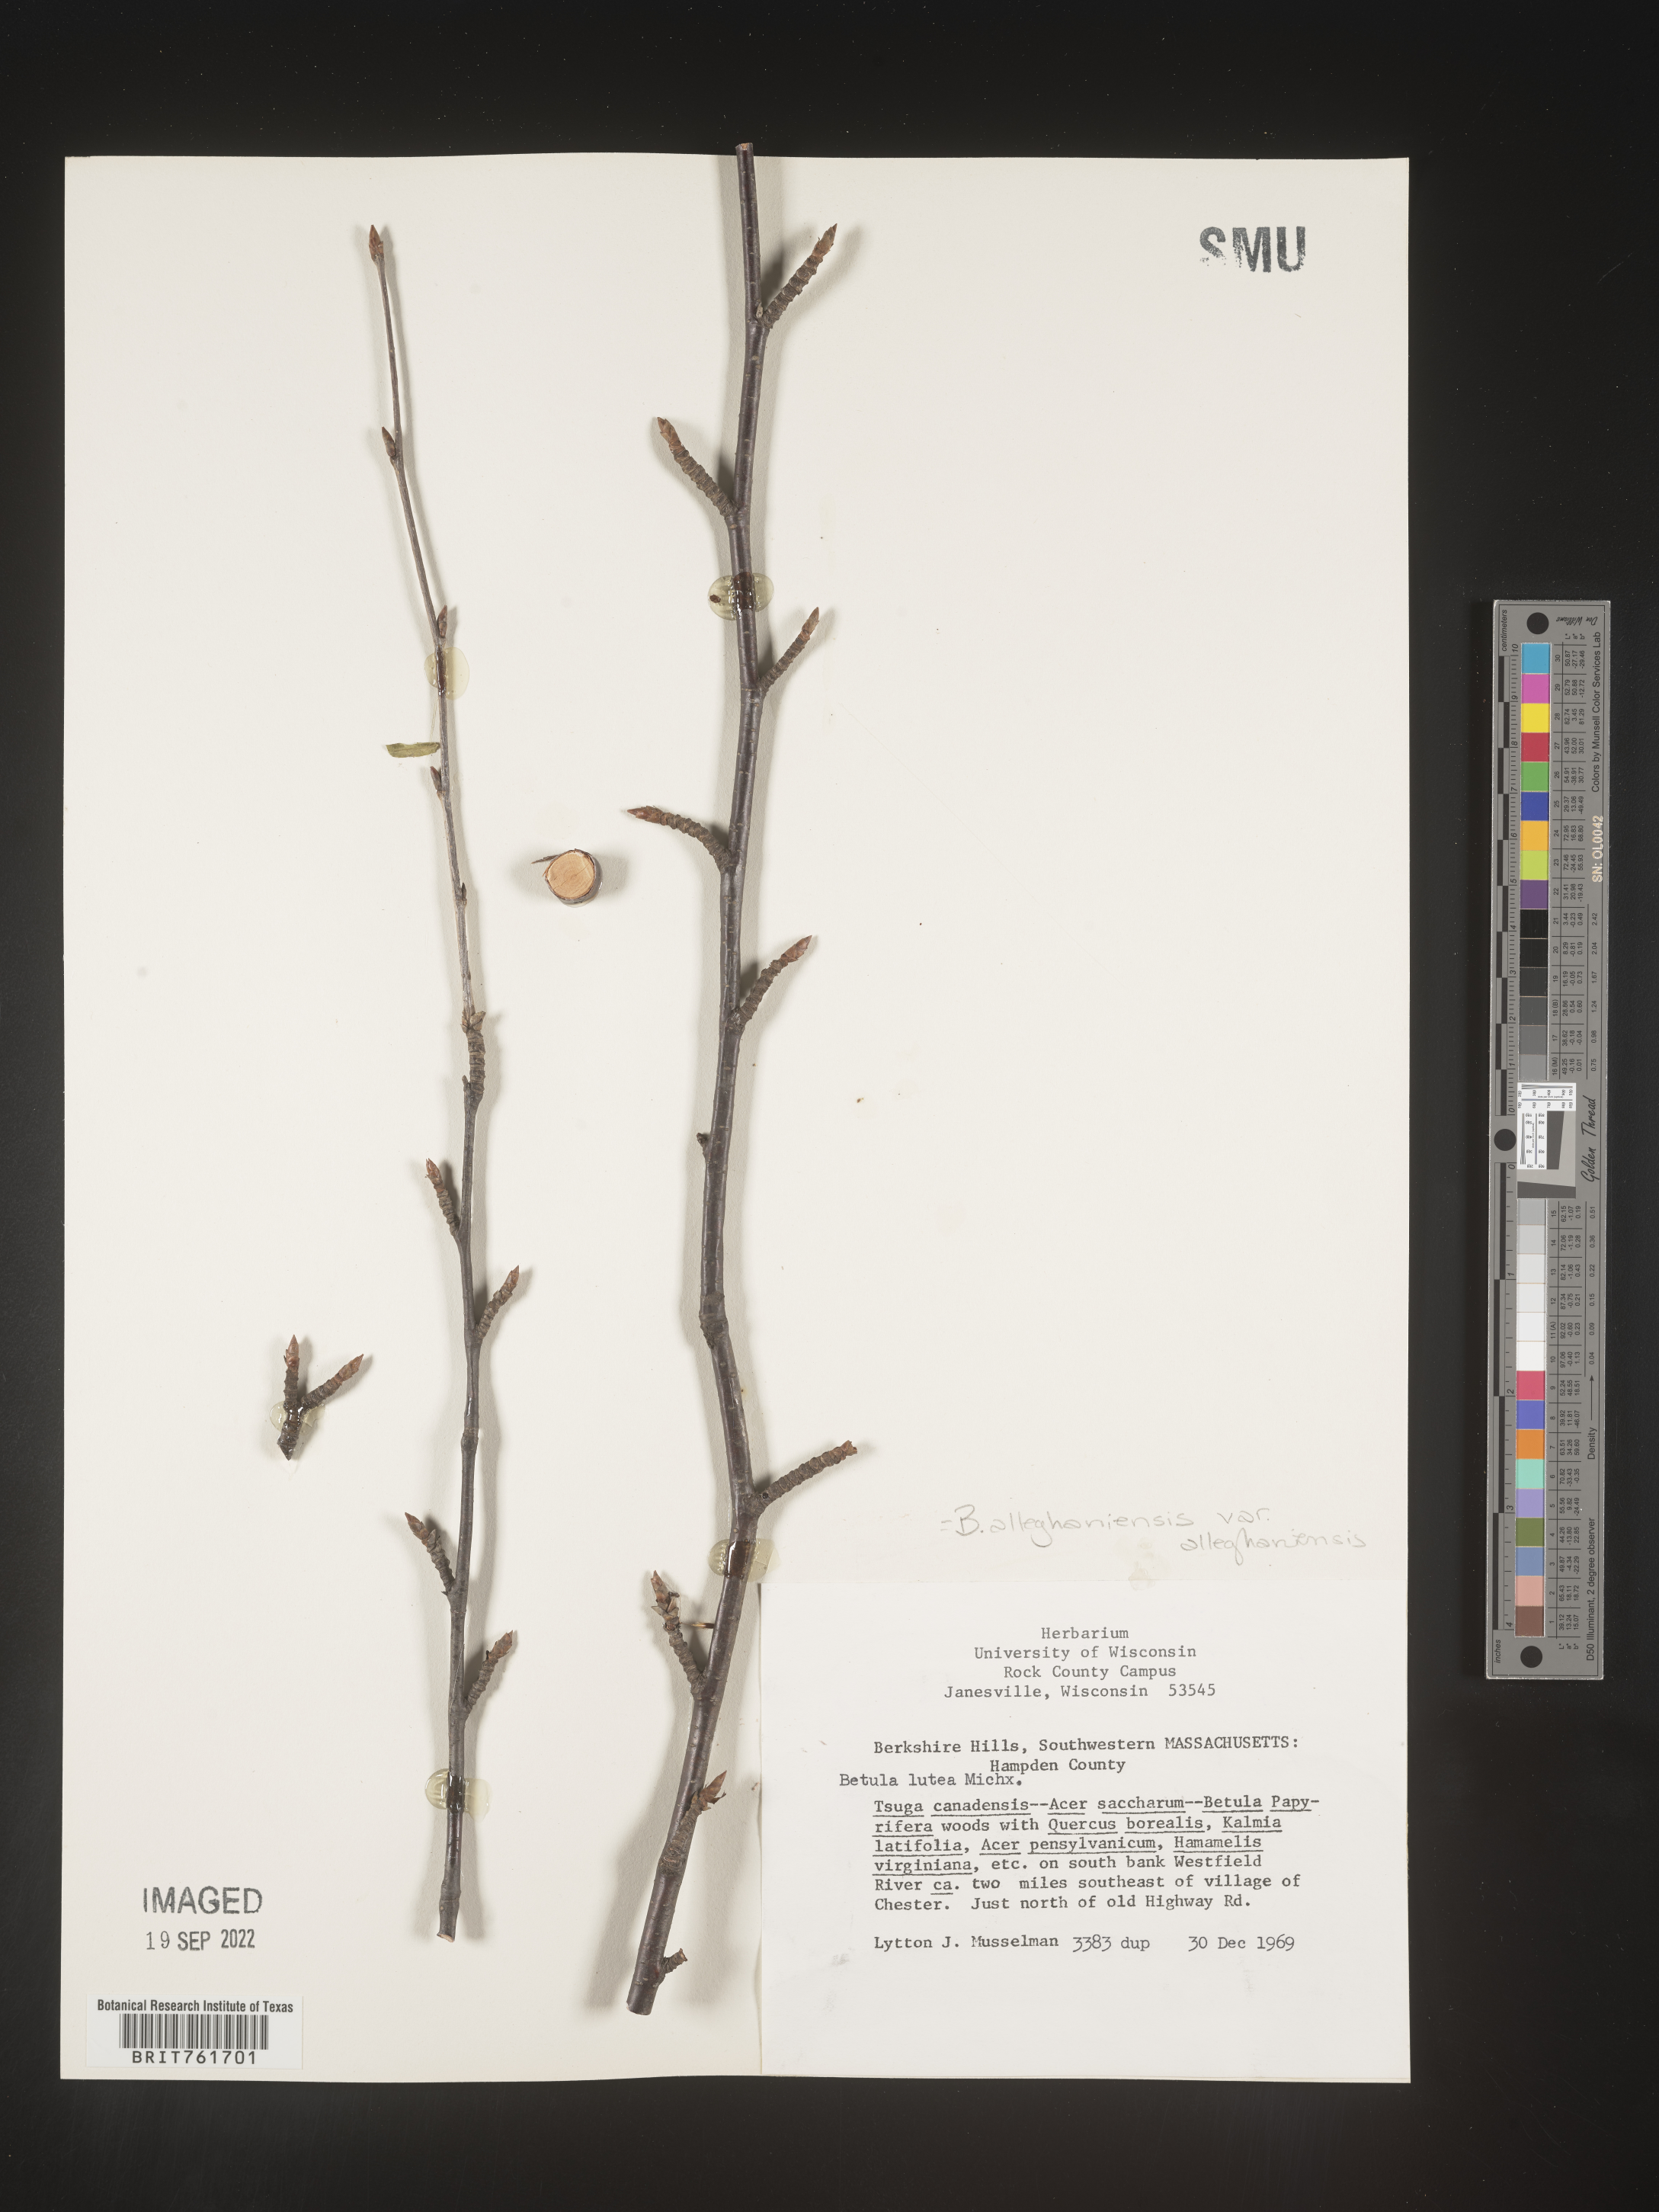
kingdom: Plantae
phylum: Tracheophyta
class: Magnoliopsida
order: Fagales
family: Betulaceae
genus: Betula
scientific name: Betula alleghaniensis
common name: Yellow birch
